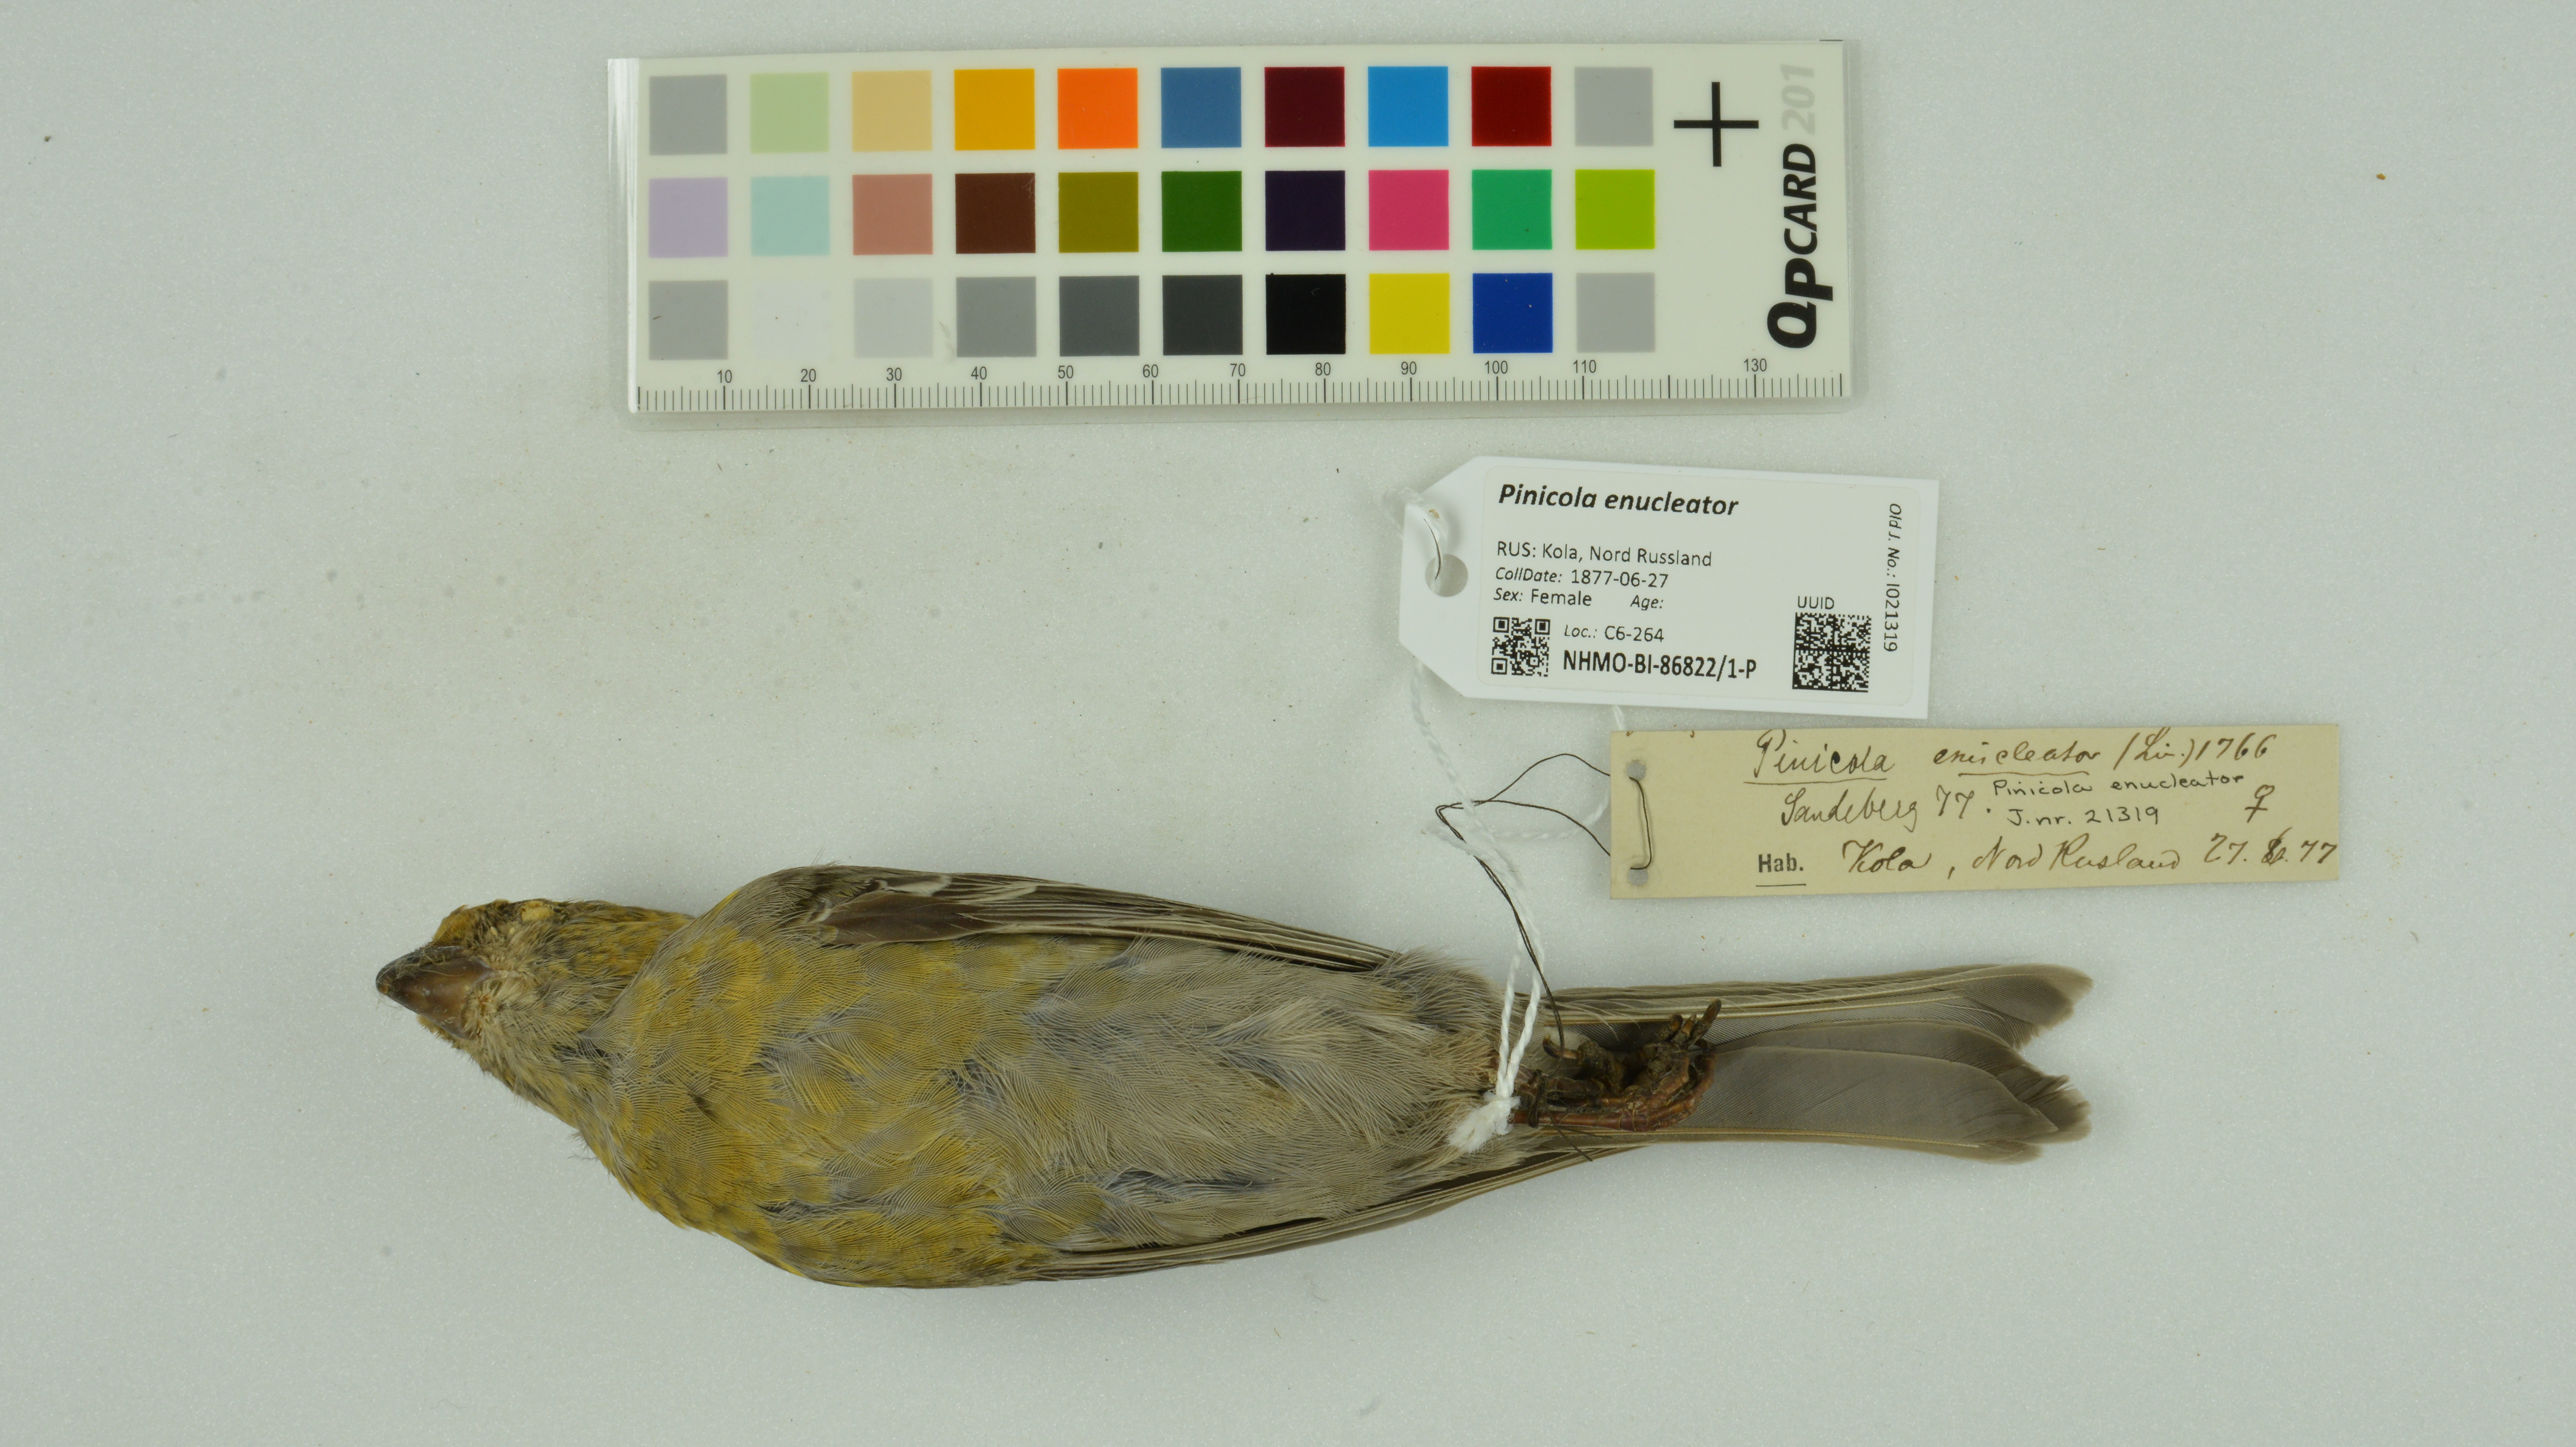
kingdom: Animalia
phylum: Chordata
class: Aves
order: Passeriformes
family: Fringillidae
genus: Pinicola
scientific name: Pinicola enucleator
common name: Pine grosbeak
